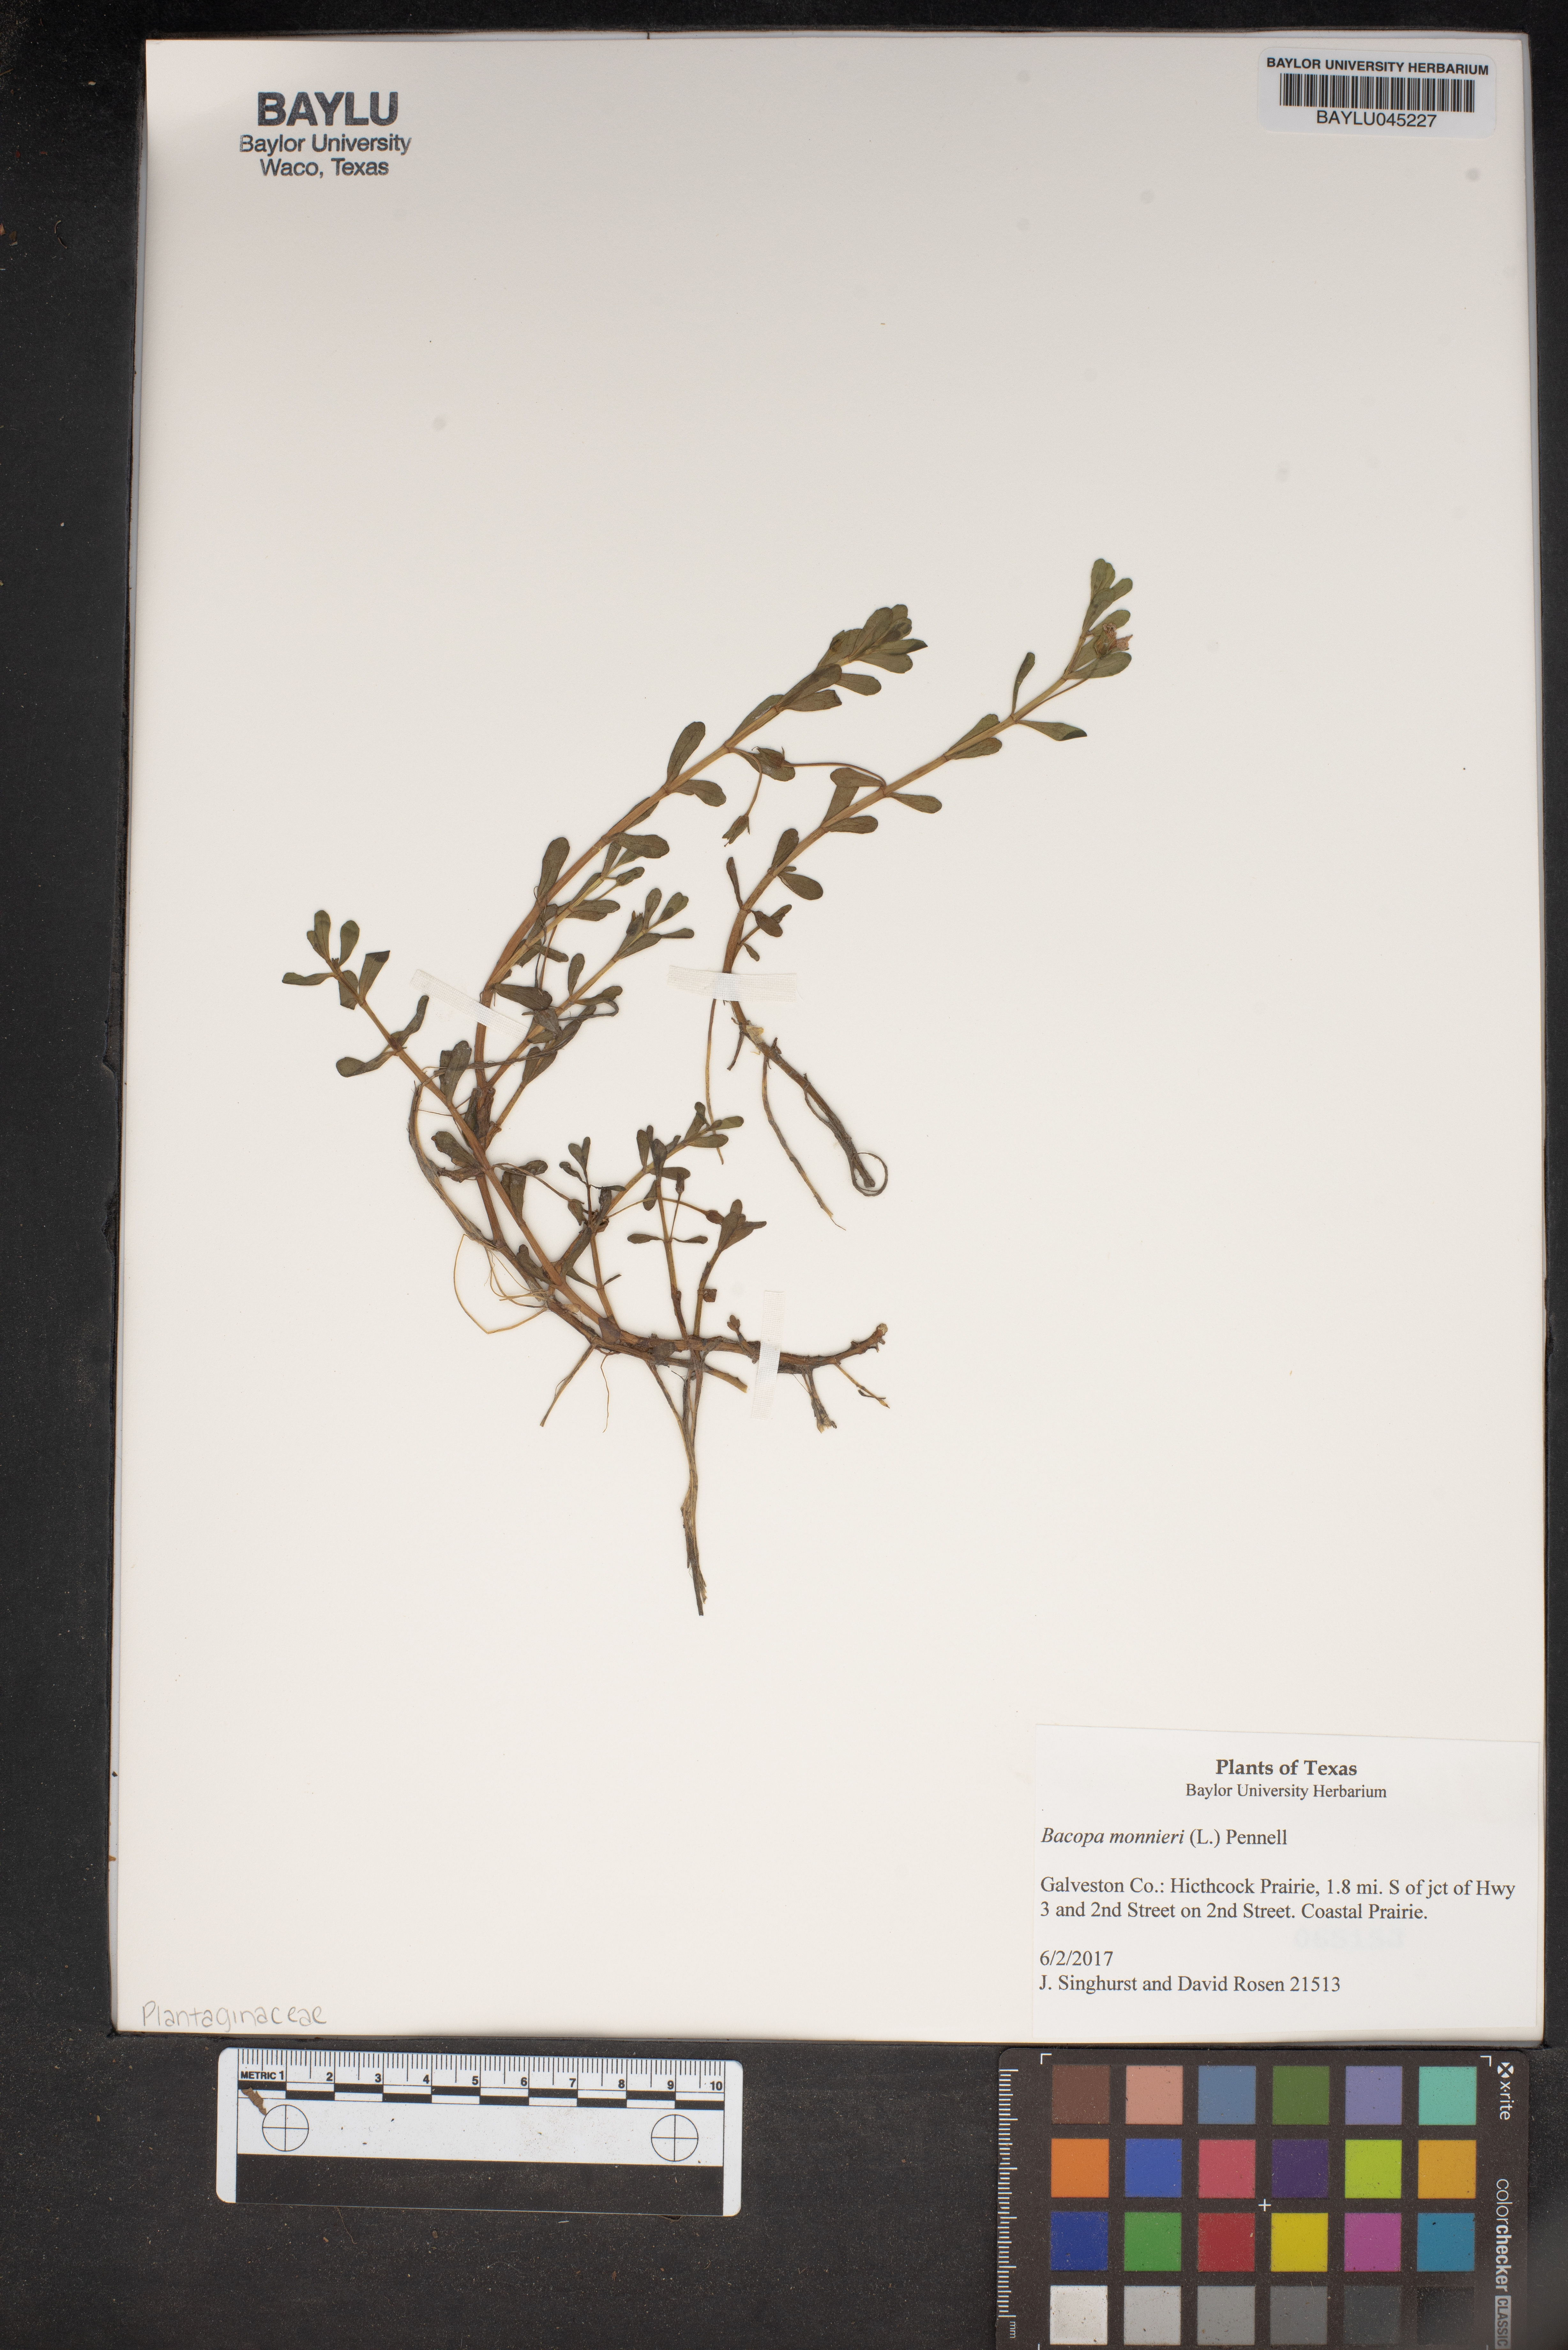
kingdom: Plantae
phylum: Tracheophyta
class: Magnoliopsida
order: Lamiales
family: Plantaginaceae
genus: Bacopa
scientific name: Bacopa monnieri
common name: Indian-pennywort
